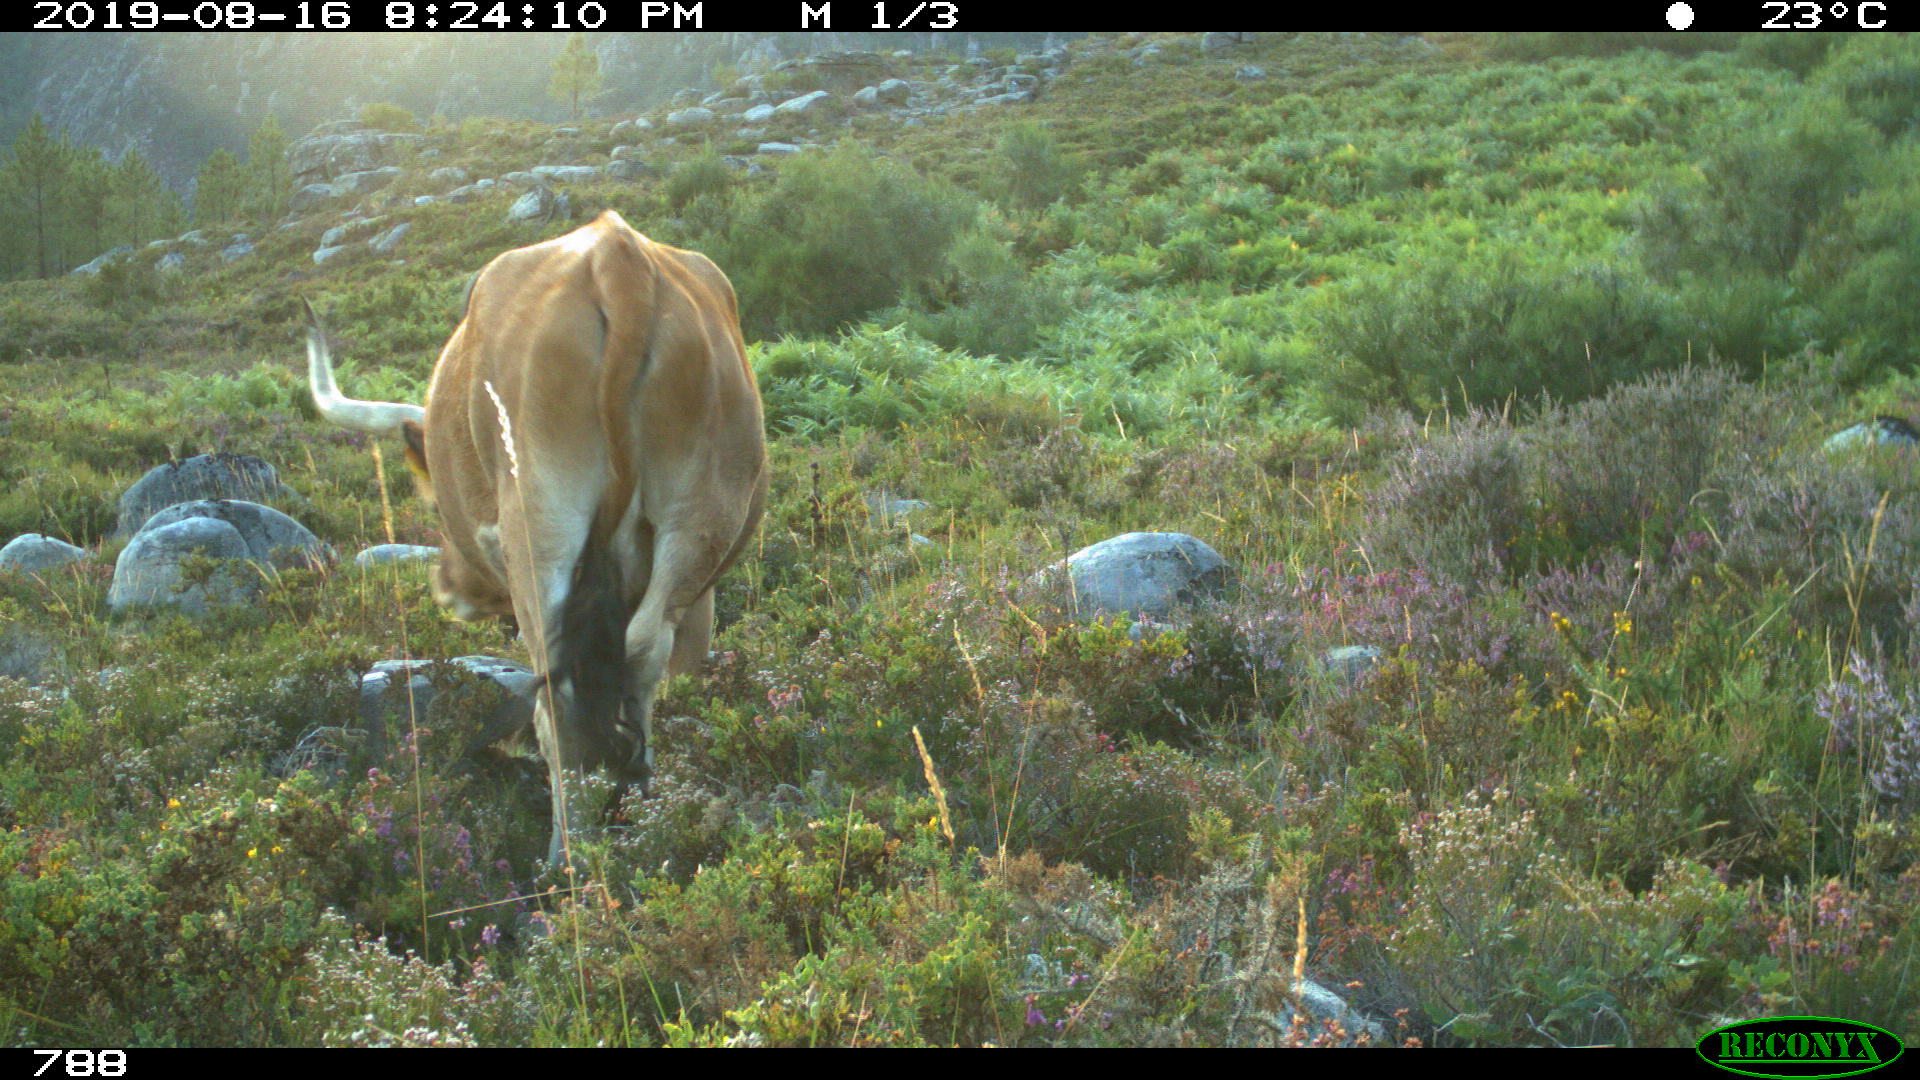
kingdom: Animalia
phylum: Chordata
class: Mammalia
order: Artiodactyla
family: Bovidae
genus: Bos
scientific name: Bos taurus
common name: Domesticated cattle
